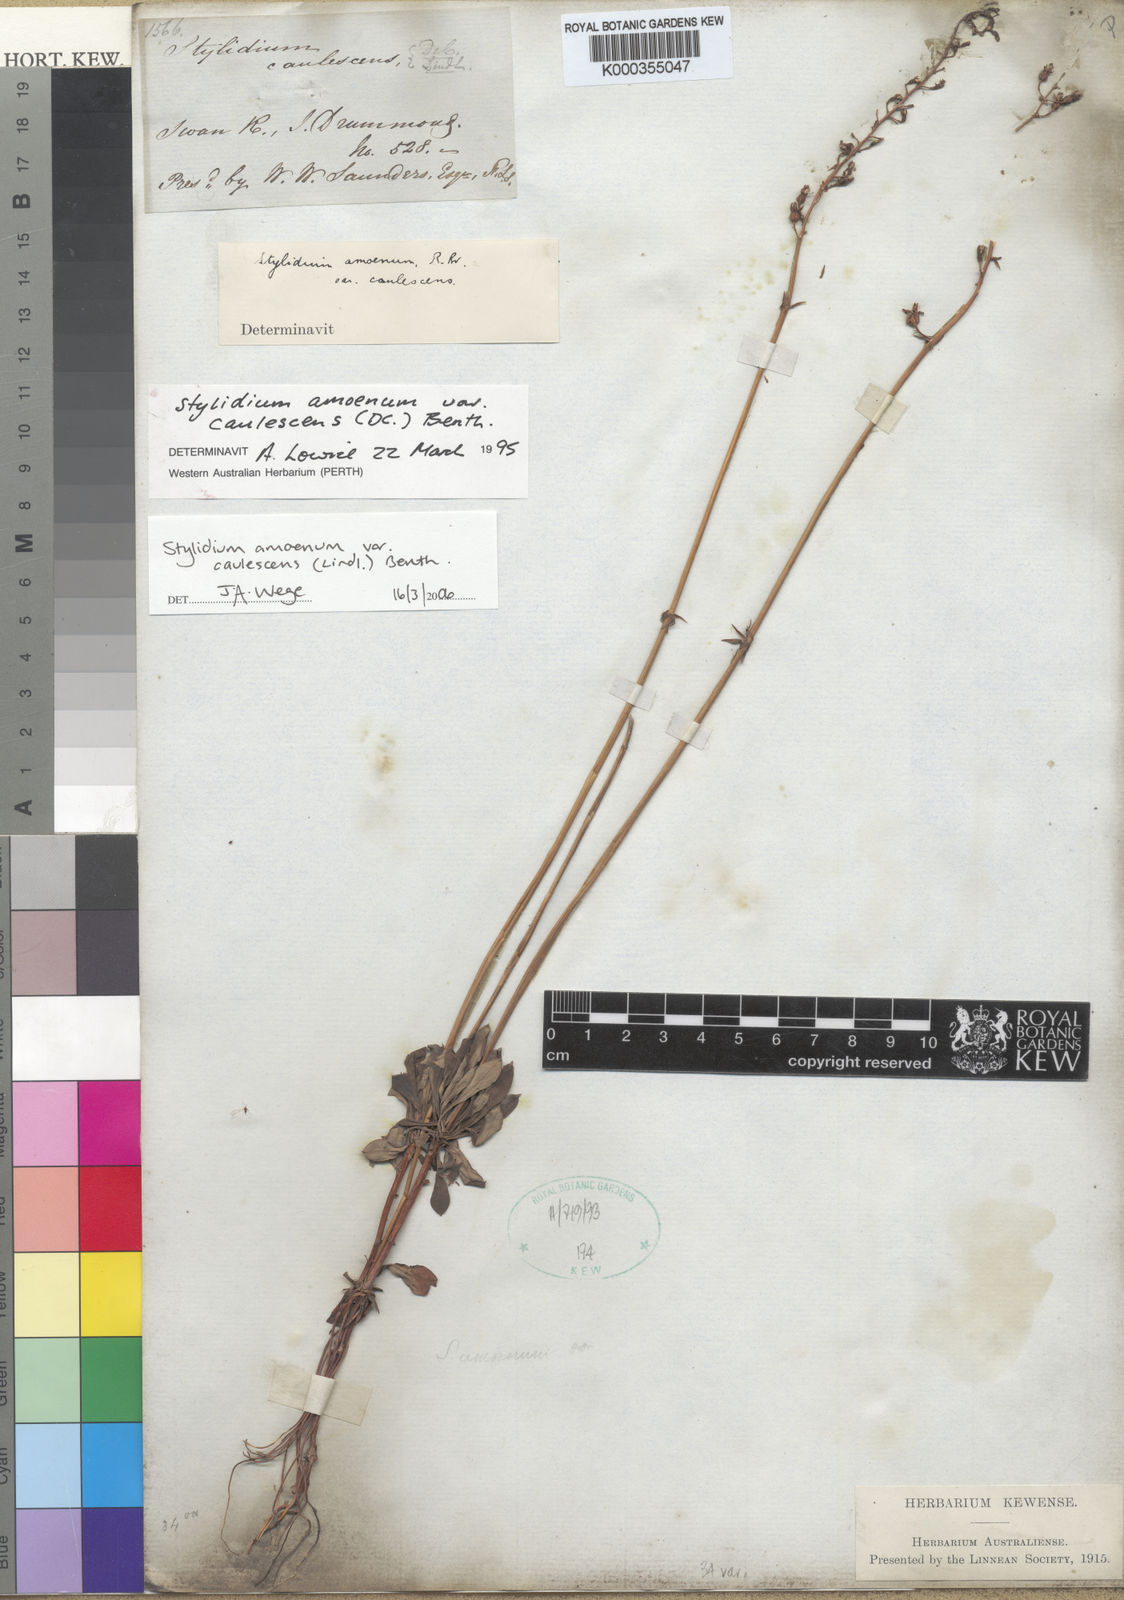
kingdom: Plantae
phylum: Tracheophyta
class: Magnoliopsida
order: Asterales
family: Stylidiaceae
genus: Stylidium
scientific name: Stylidium amoenum
